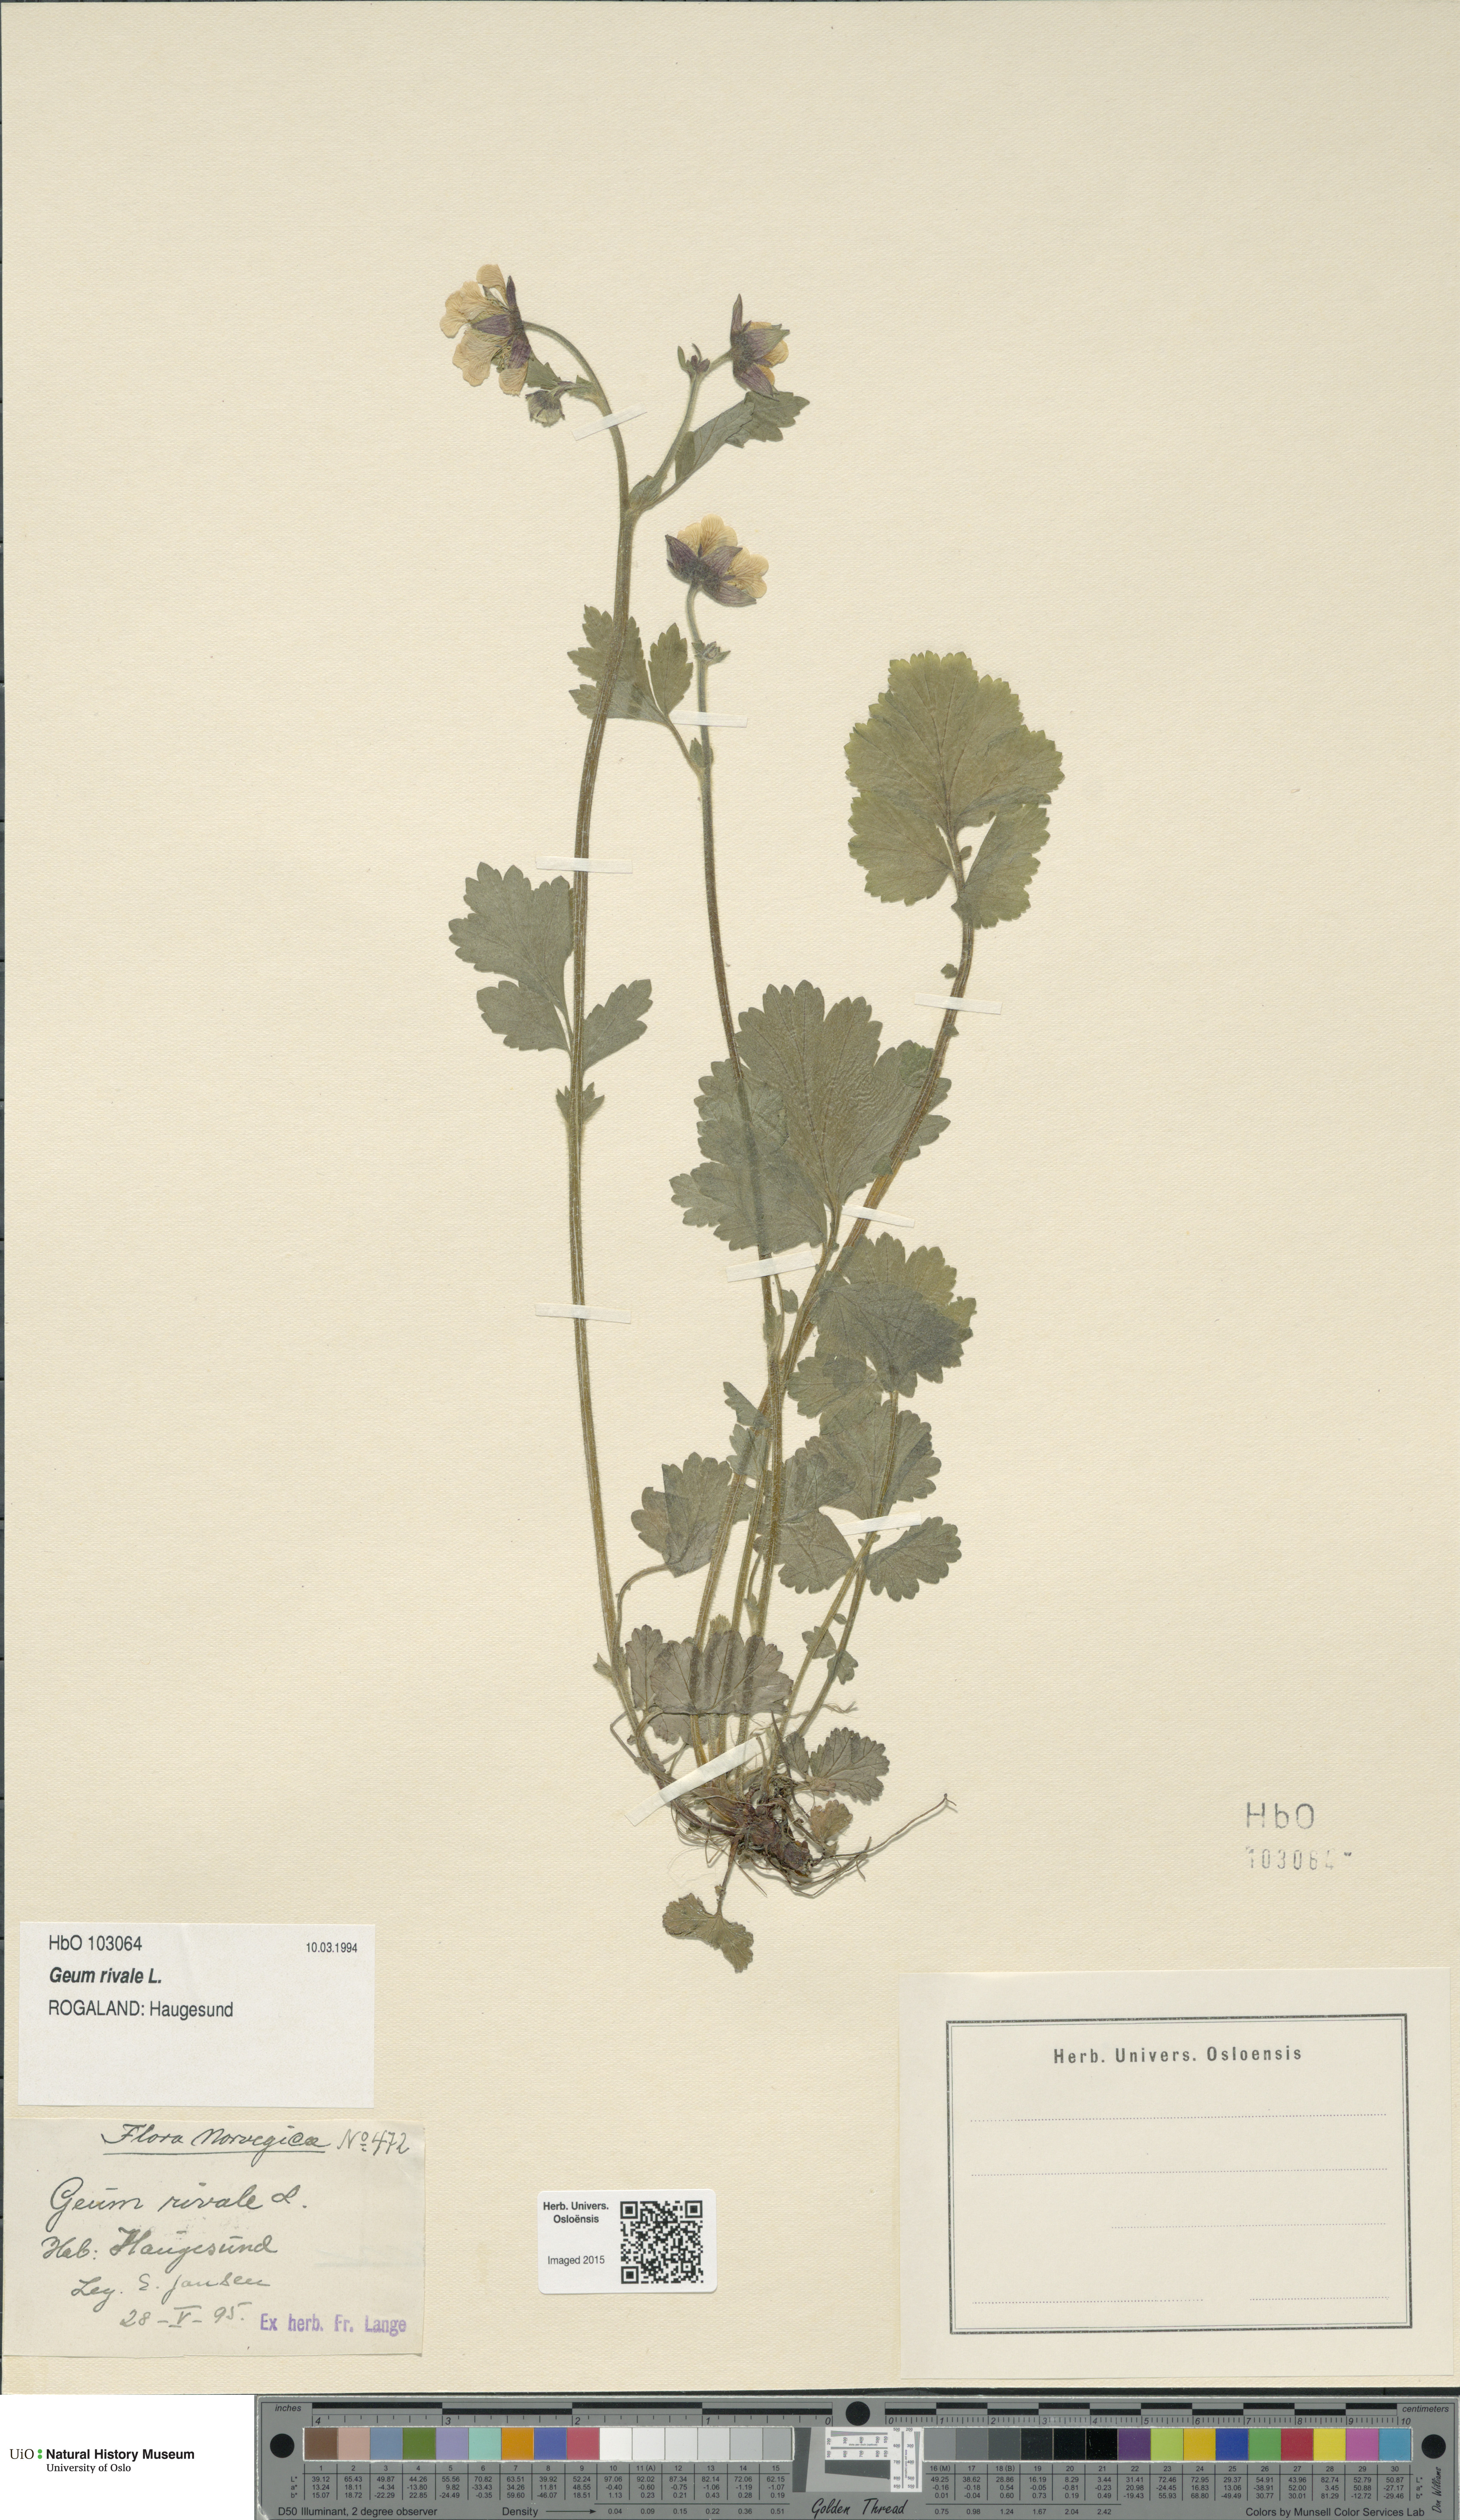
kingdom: Plantae
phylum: Tracheophyta
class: Magnoliopsida
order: Rosales
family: Rosaceae
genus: Geum
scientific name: Geum rivale
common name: Water avens
